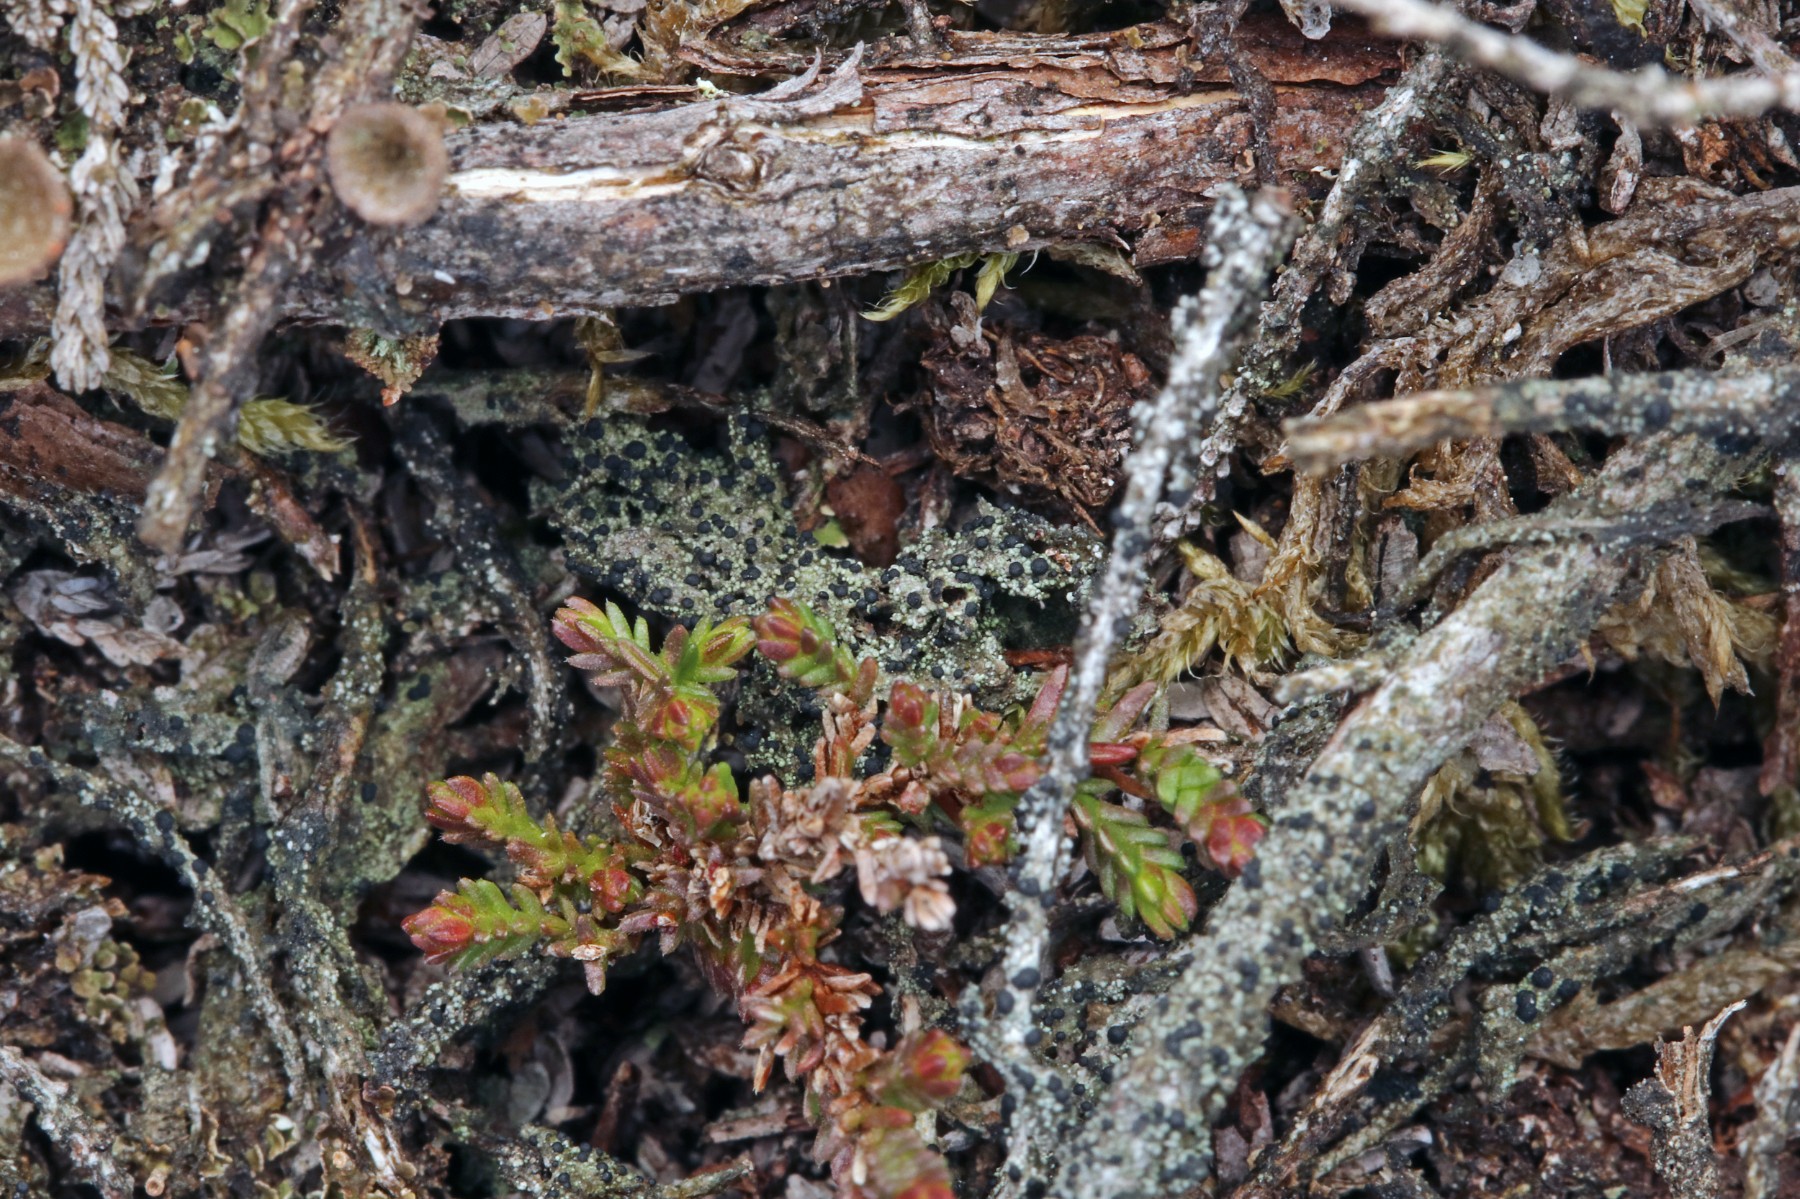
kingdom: Fungi
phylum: Ascomycota
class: Lecanoromycetes
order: Lecanorales
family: Byssolomataceae
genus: Micarea
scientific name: Micarea lignaria
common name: tørve-knaplav
